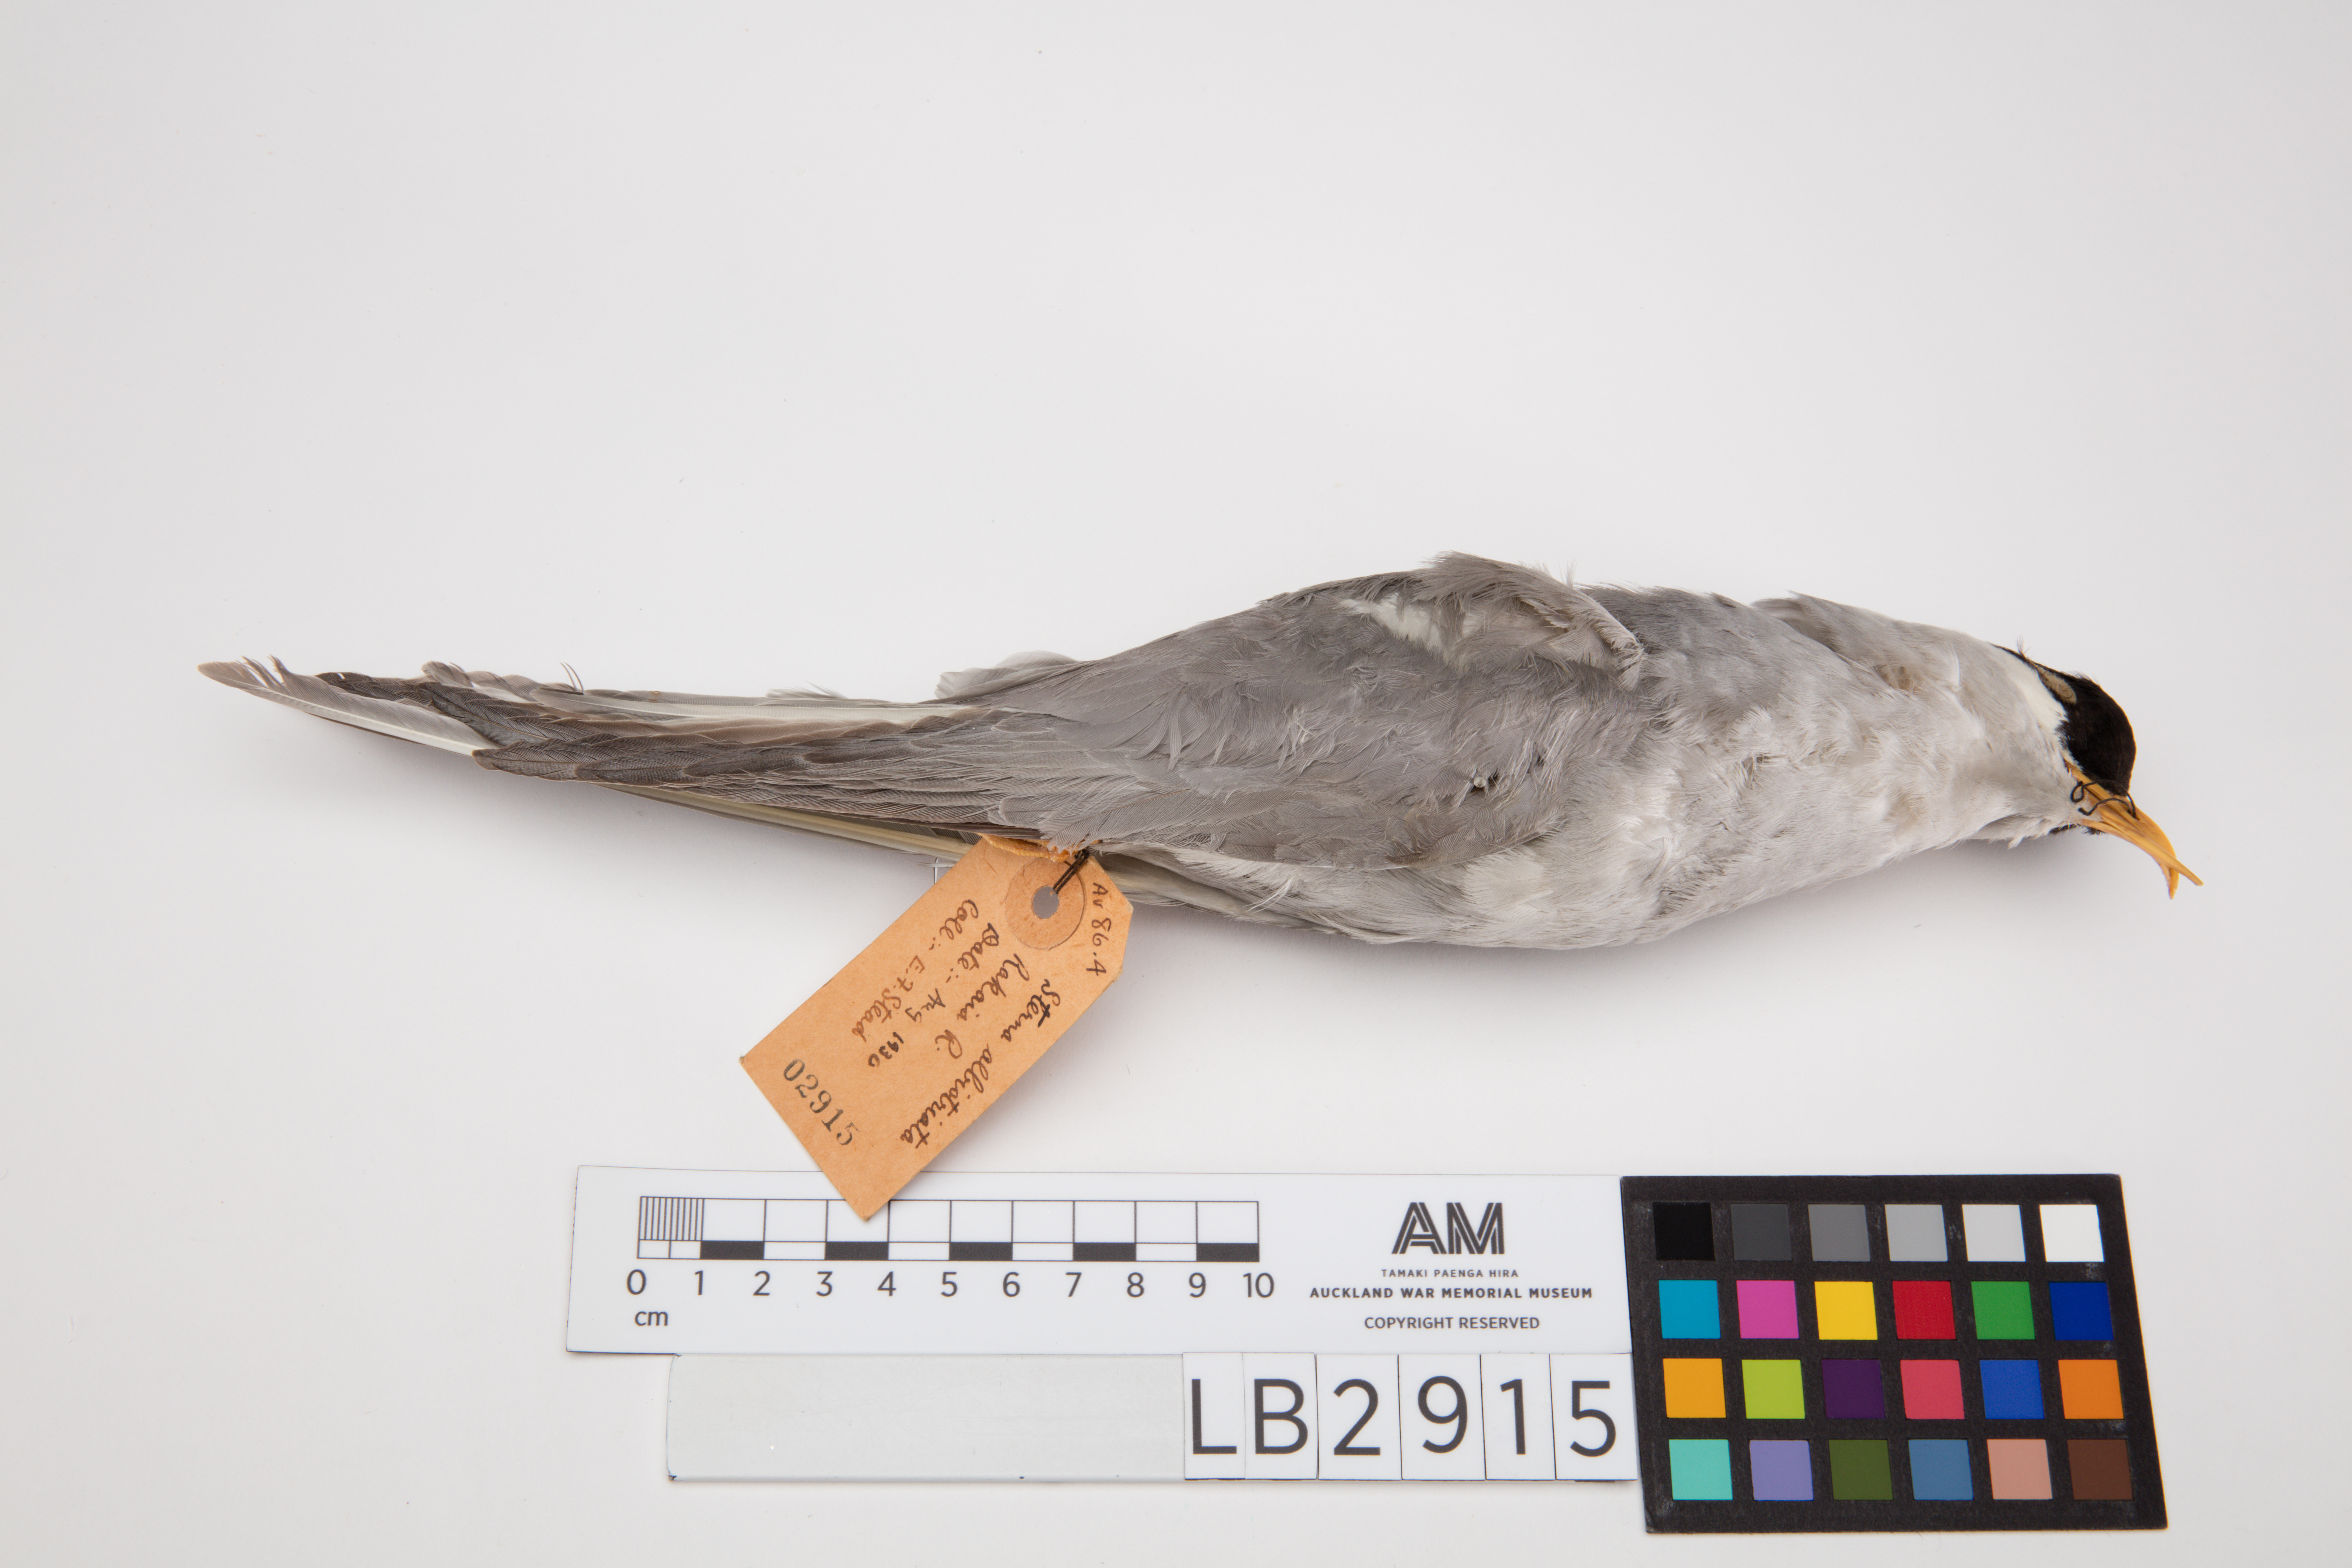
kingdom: Animalia
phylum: Chordata
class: Aves
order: Charadriiformes
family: Laridae
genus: Chlidonias
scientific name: Chlidonias albostriatus
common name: Black-fronted tern
